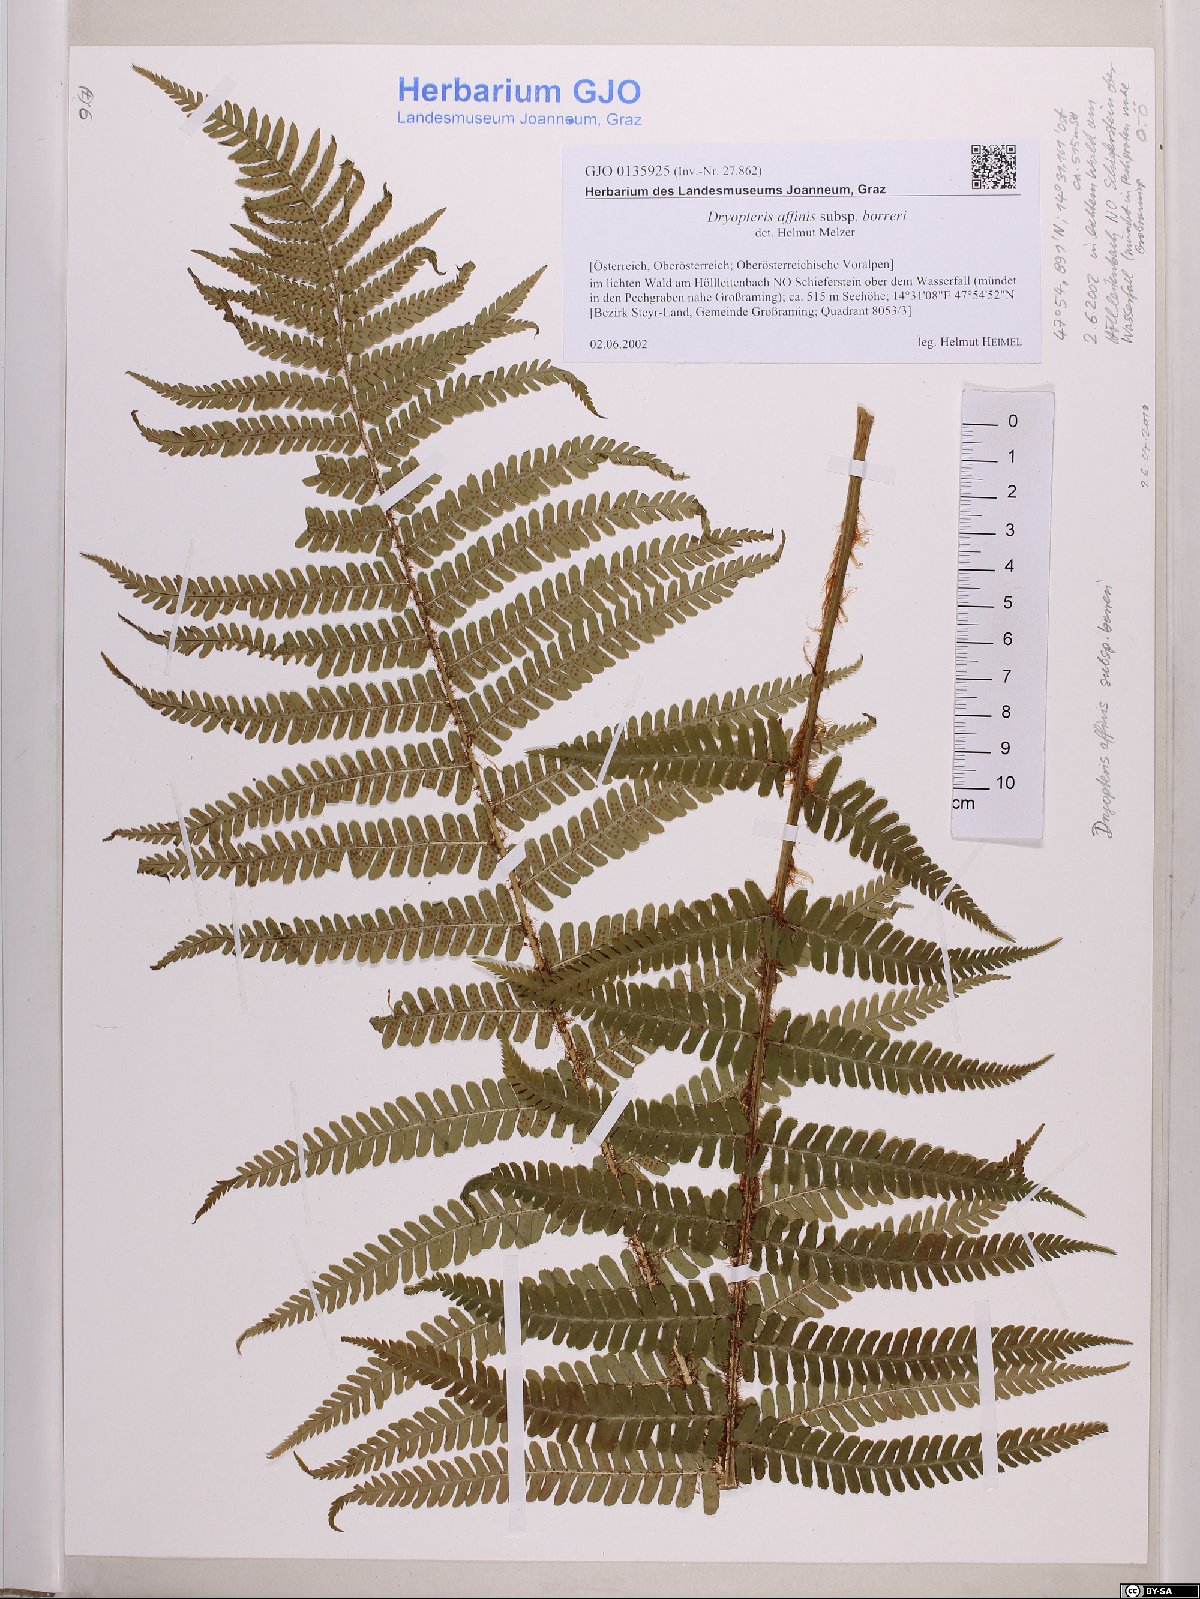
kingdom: Plantae
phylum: Tracheophyta
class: Polypodiopsida
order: Polypodiales
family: Dryopteridaceae
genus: Dryopteris
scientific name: Dryopteris borreri
